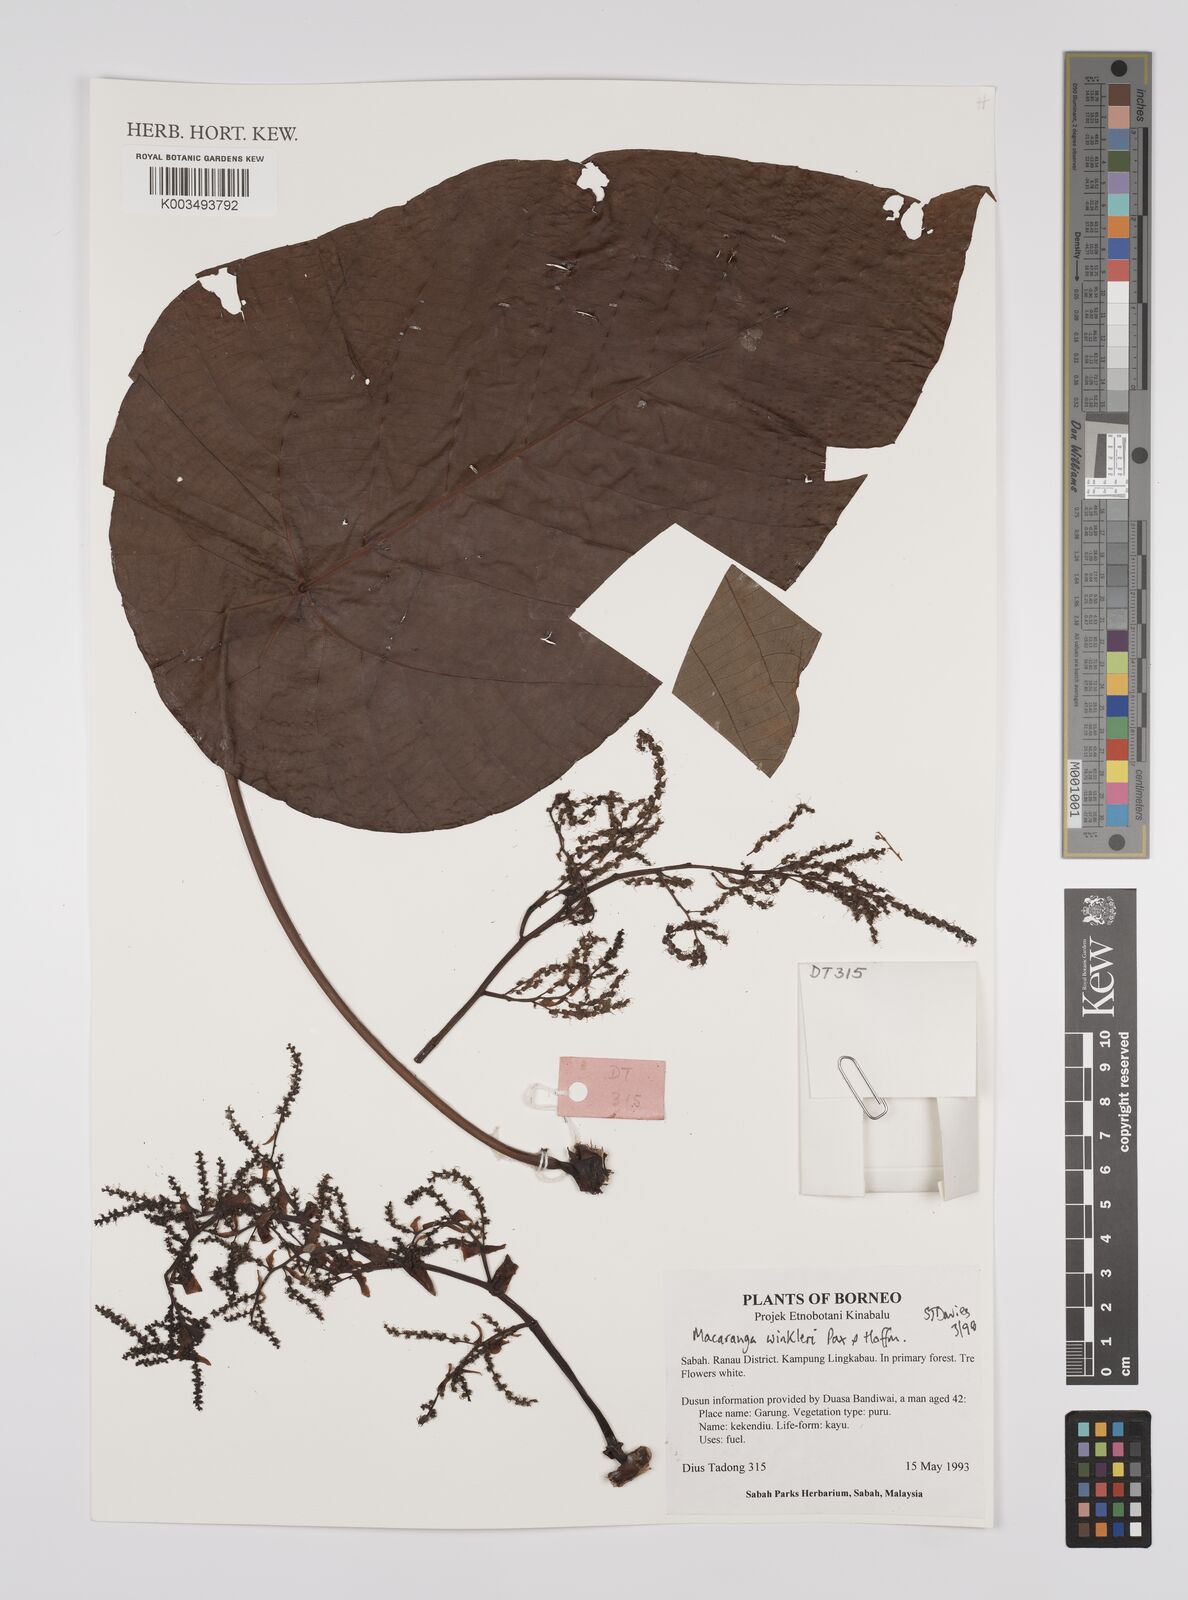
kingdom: Plantae
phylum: Tracheophyta
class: Magnoliopsida
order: Malpighiales
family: Euphorbiaceae
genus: Macaranga
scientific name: Macaranga winkleri
